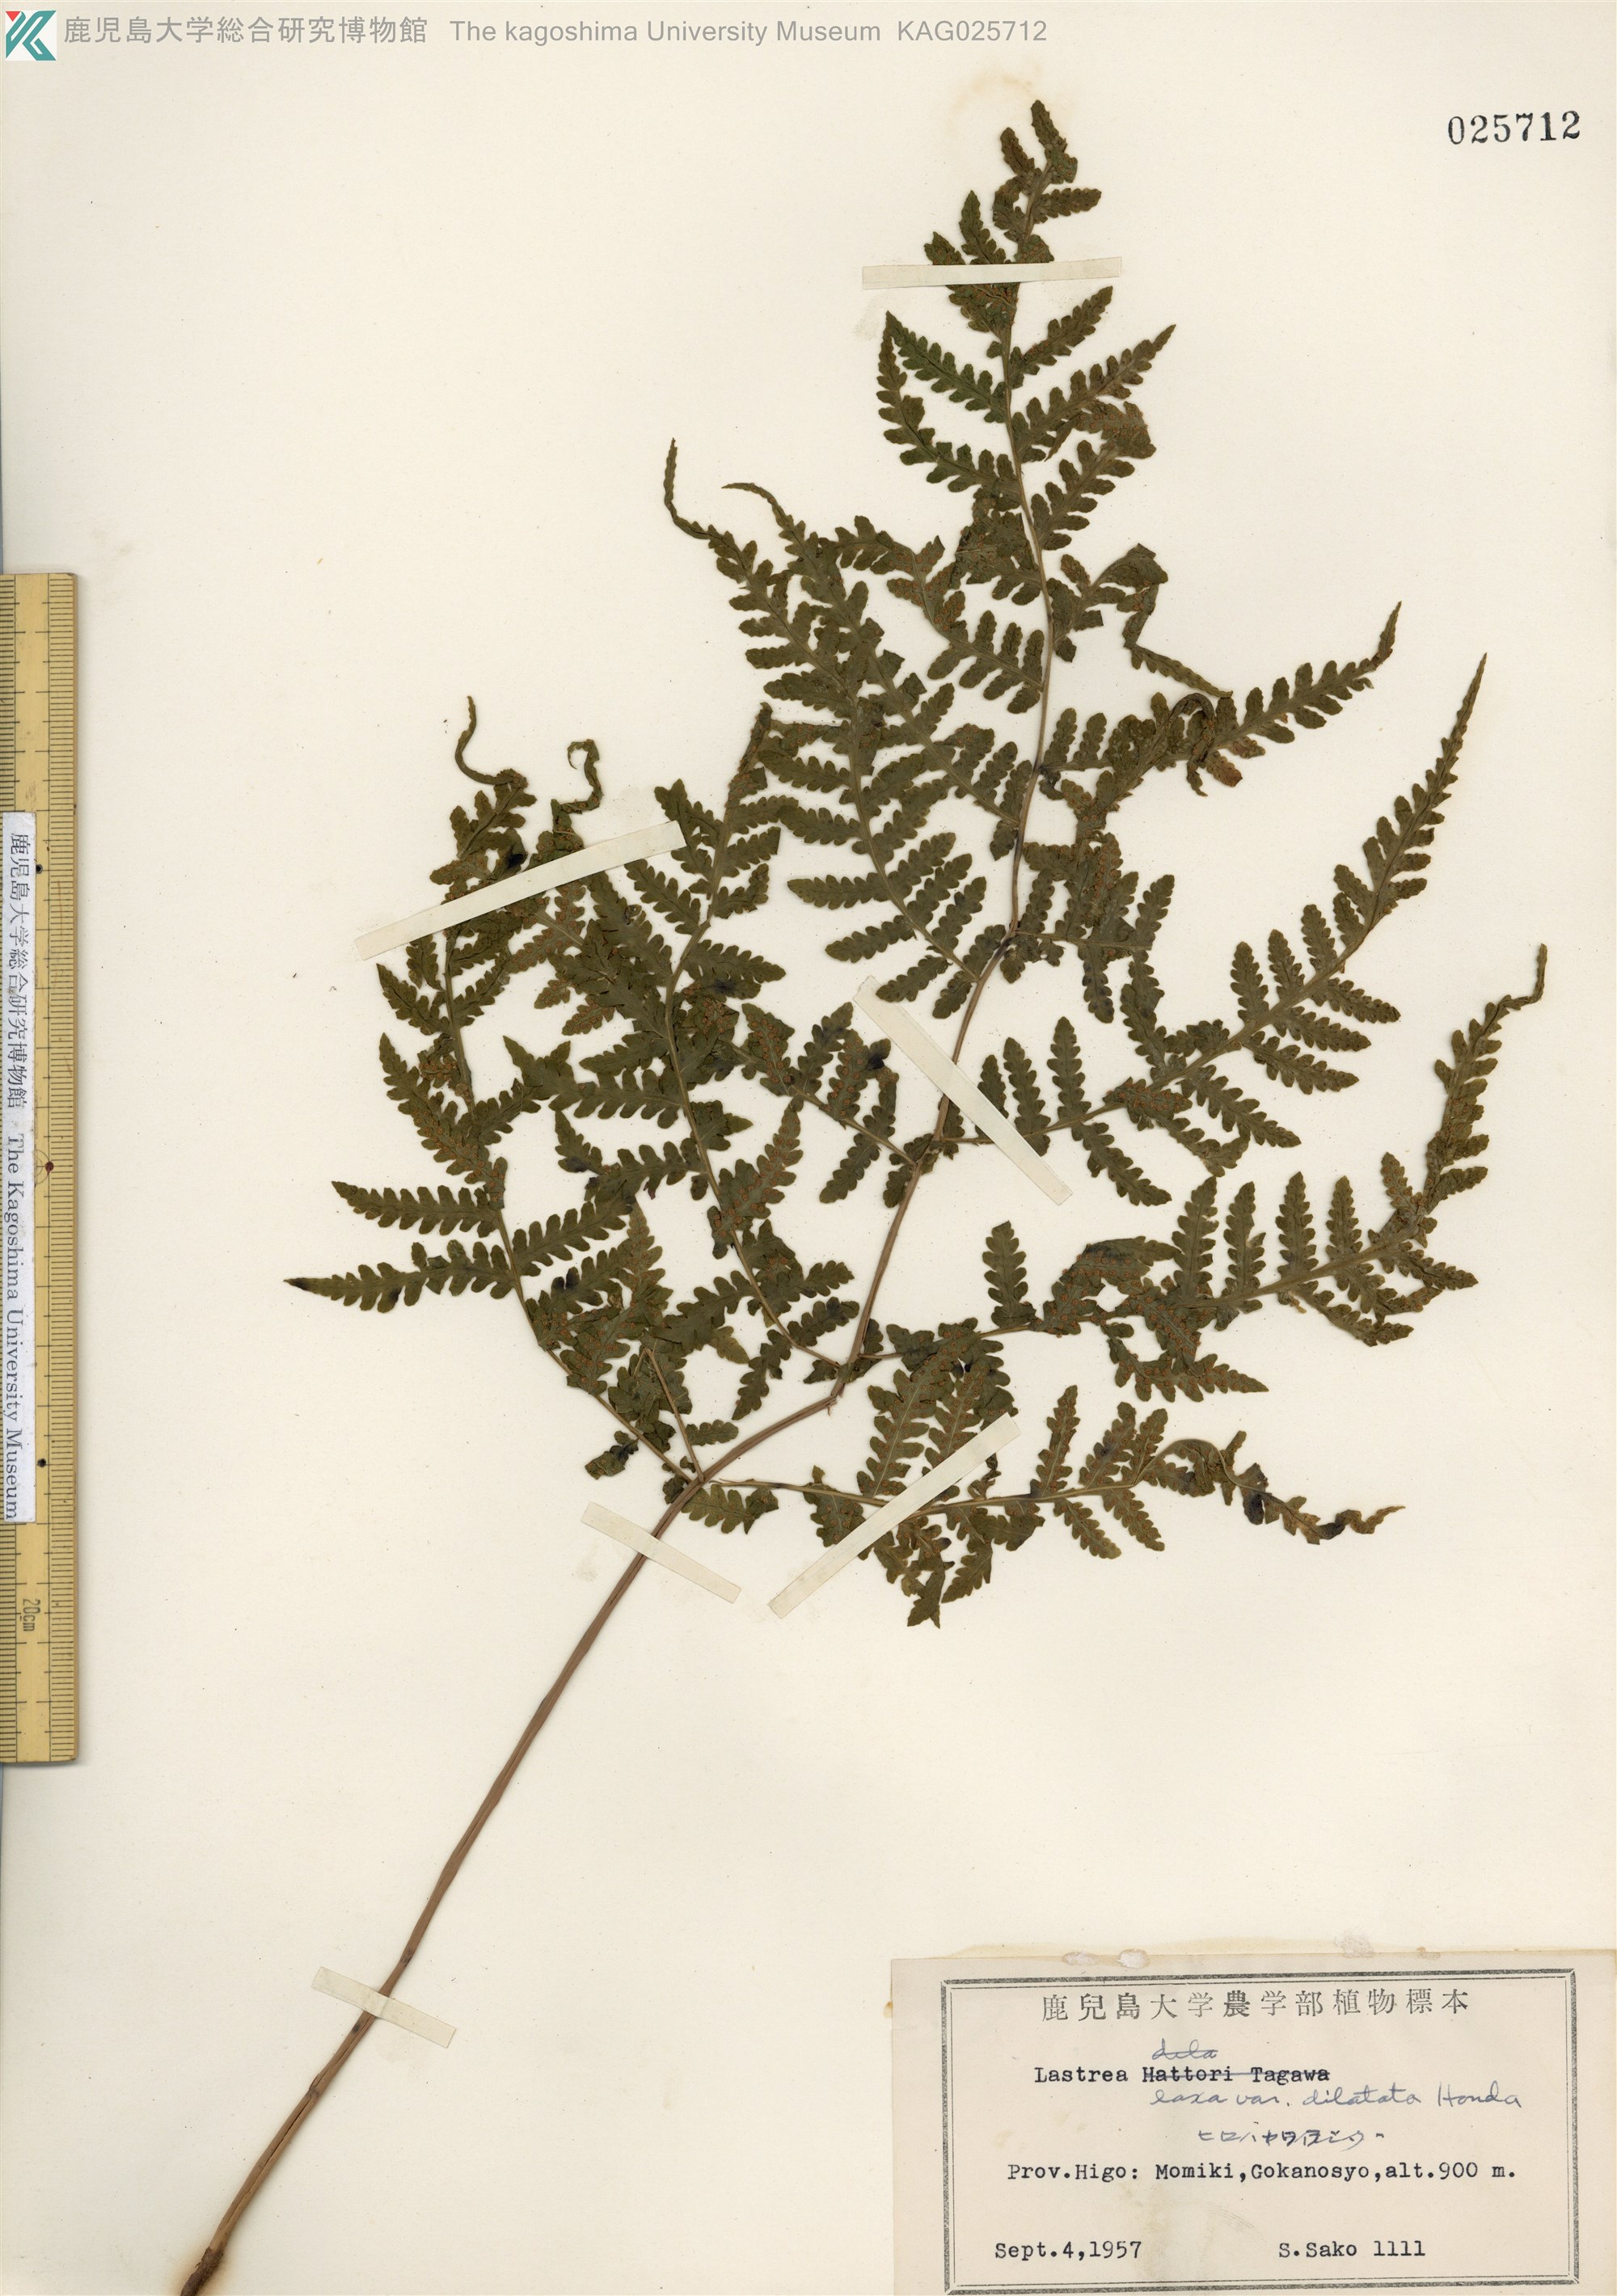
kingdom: Plantae
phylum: Tracheophyta
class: Polypodiopsida
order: Polypodiales
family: Thelypteridaceae
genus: Metathelypteris
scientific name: Metathelypteris hattori
